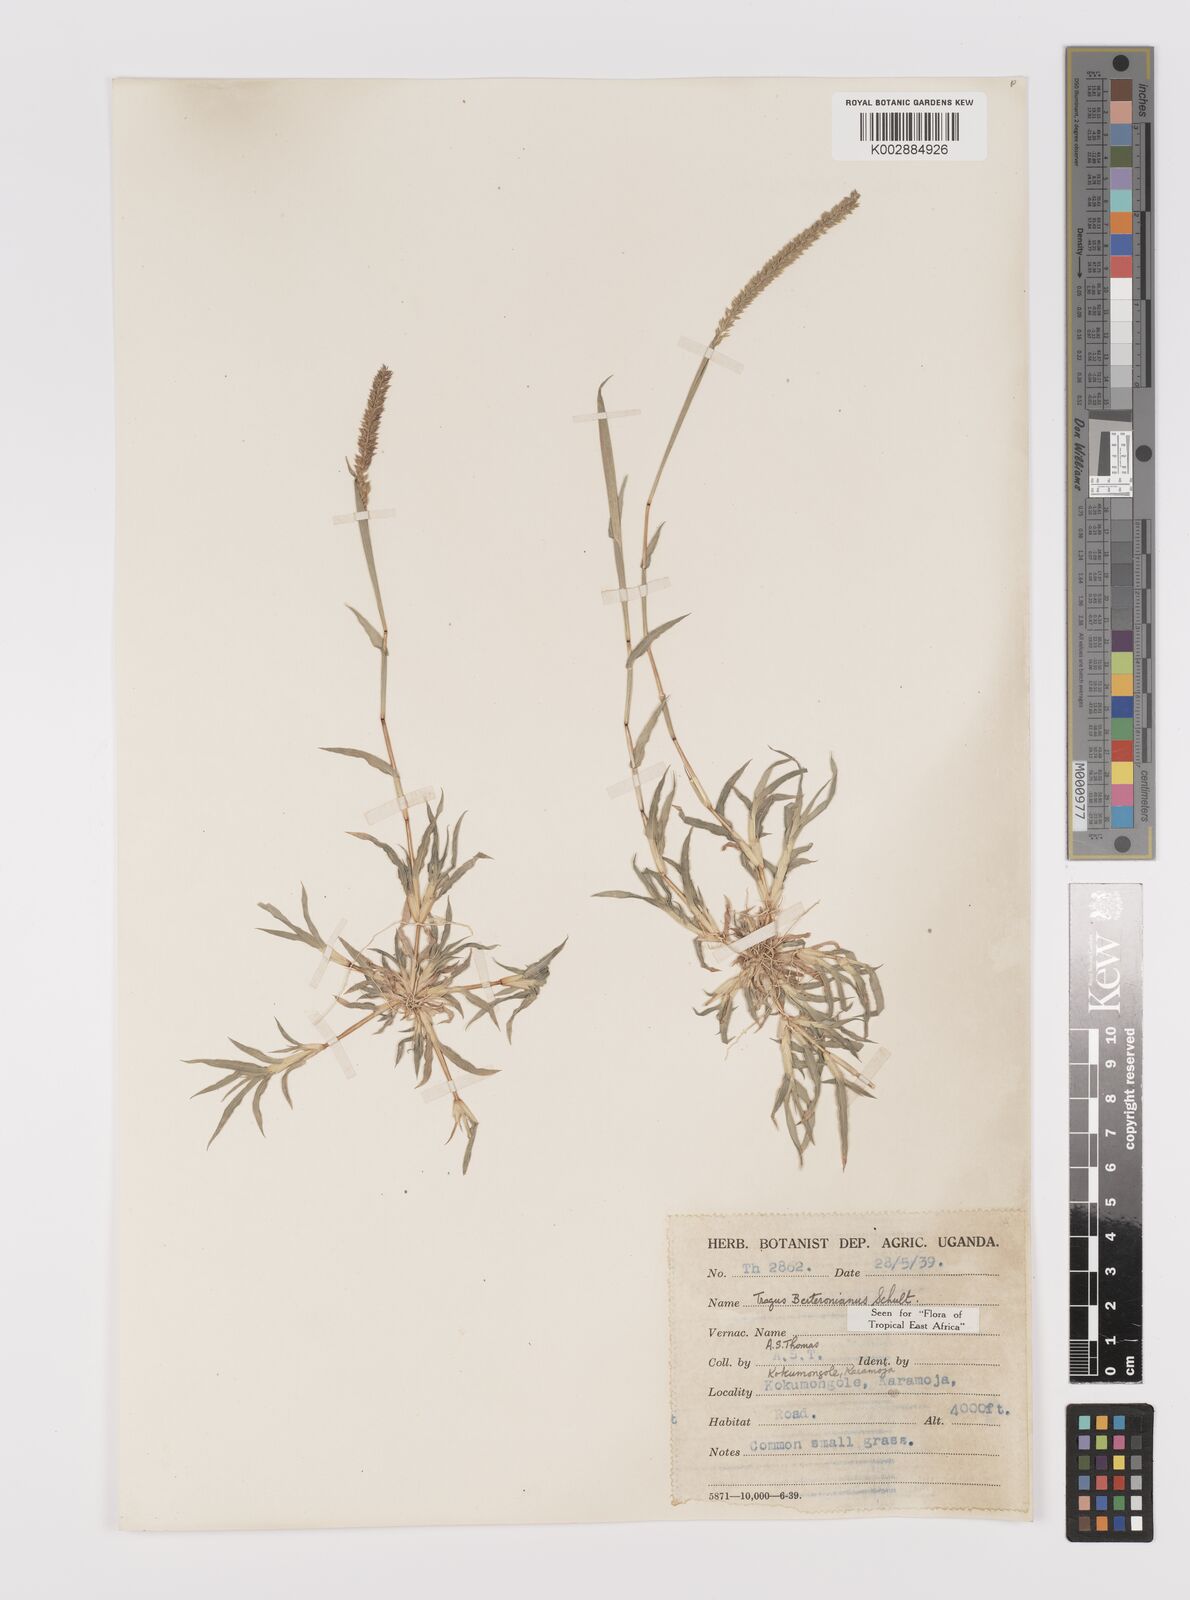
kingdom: Plantae
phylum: Tracheophyta
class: Liliopsida
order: Poales
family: Poaceae
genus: Tragus
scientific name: Tragus berteronianus
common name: African bur-grass
